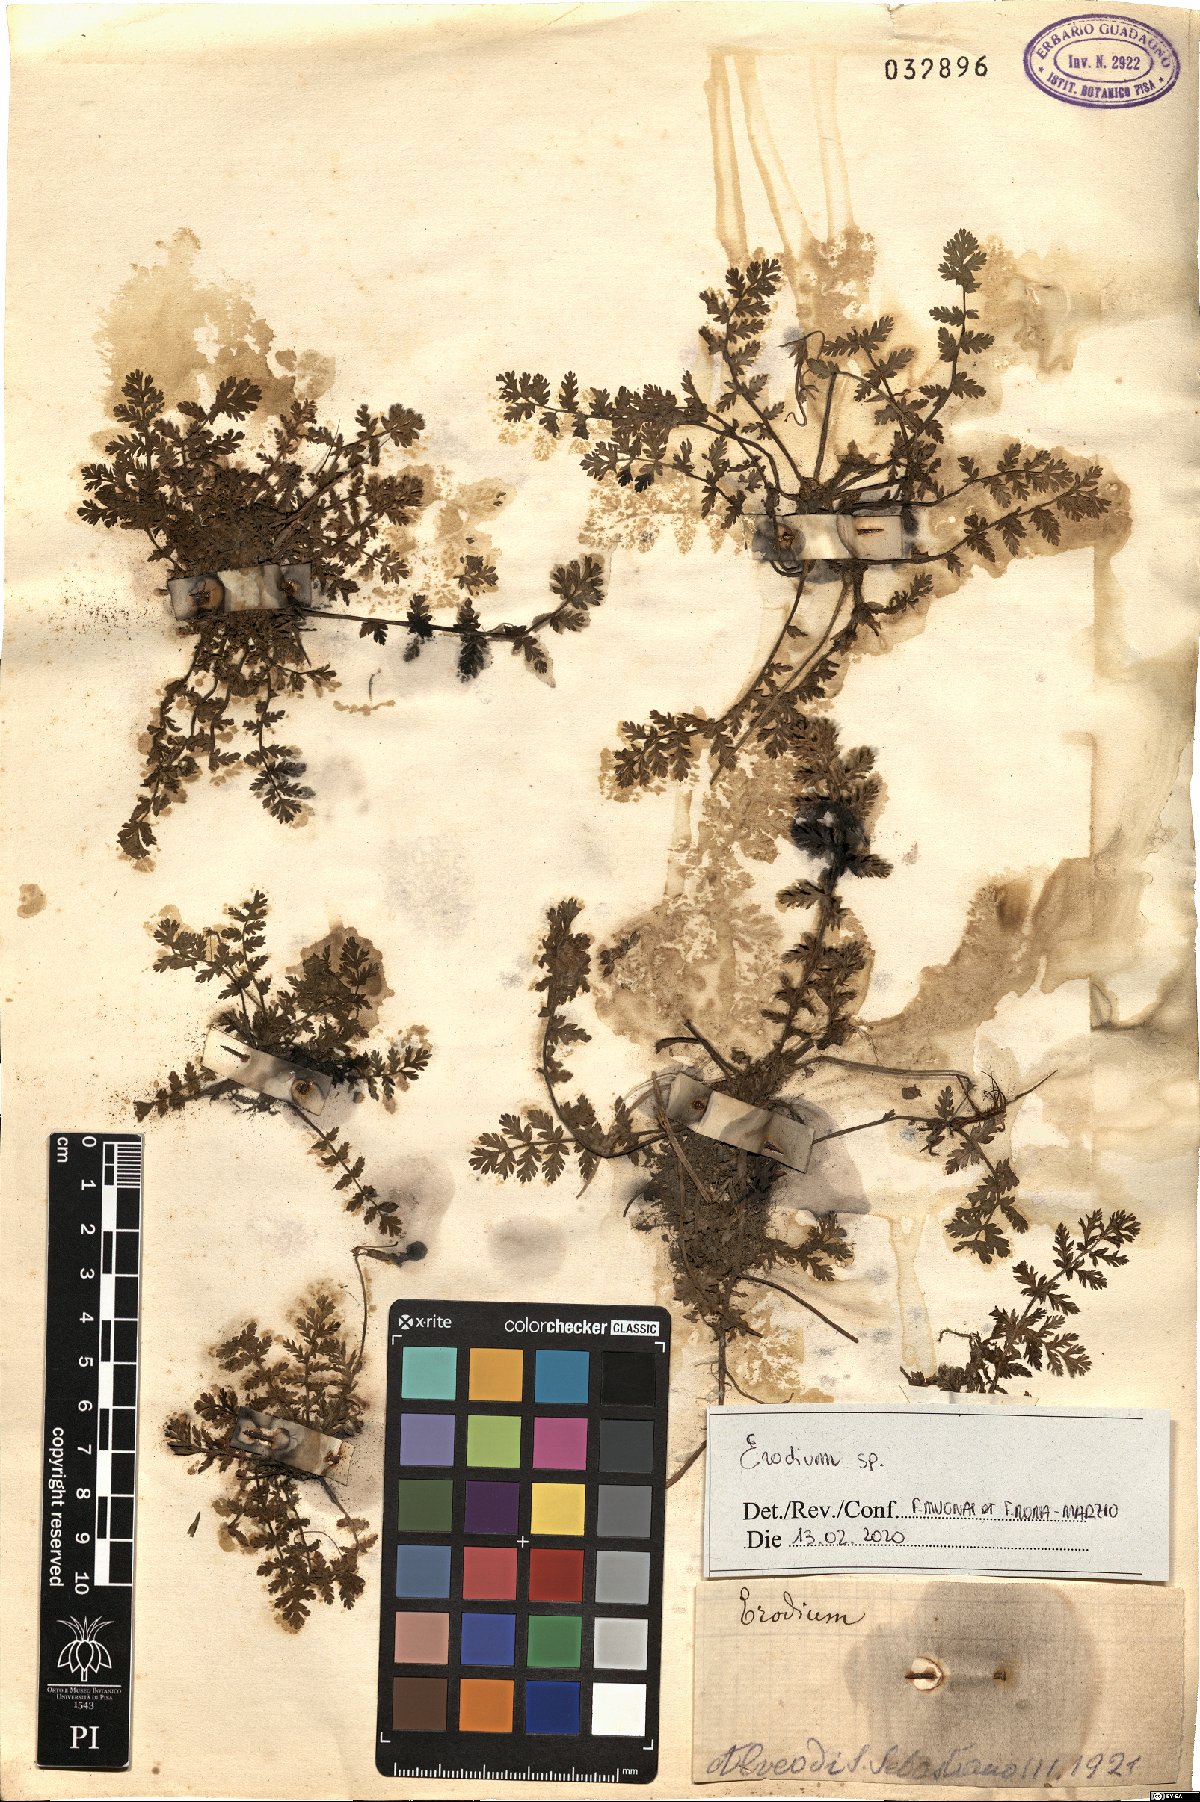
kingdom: Plantae
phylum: Tracheophyta
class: Magnoliopsida
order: Geraniales
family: Geraniaceae
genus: Erodium
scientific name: Erodium
